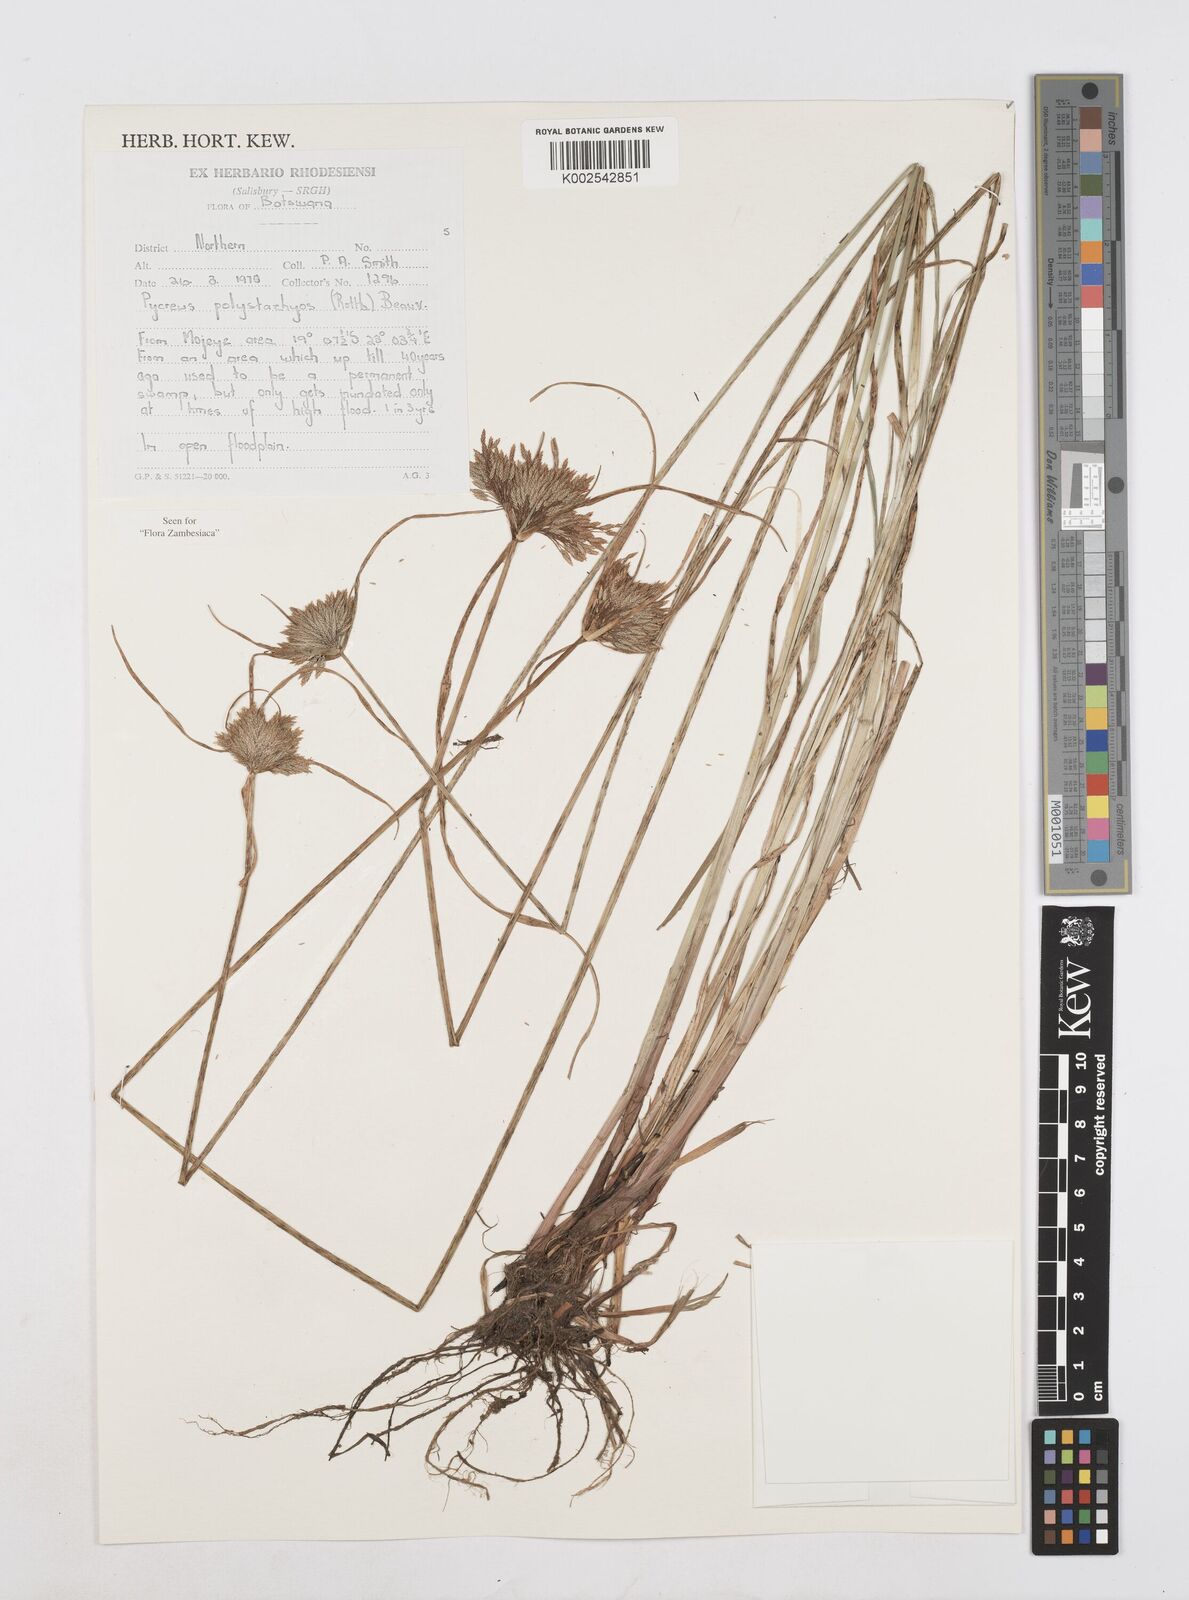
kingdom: Plantae
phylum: Tracheophyta
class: Liliopsida
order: Poales
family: Cyperaceae
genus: Cyperus
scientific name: Cyperus polystachyos
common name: Bunchy flat sedge
